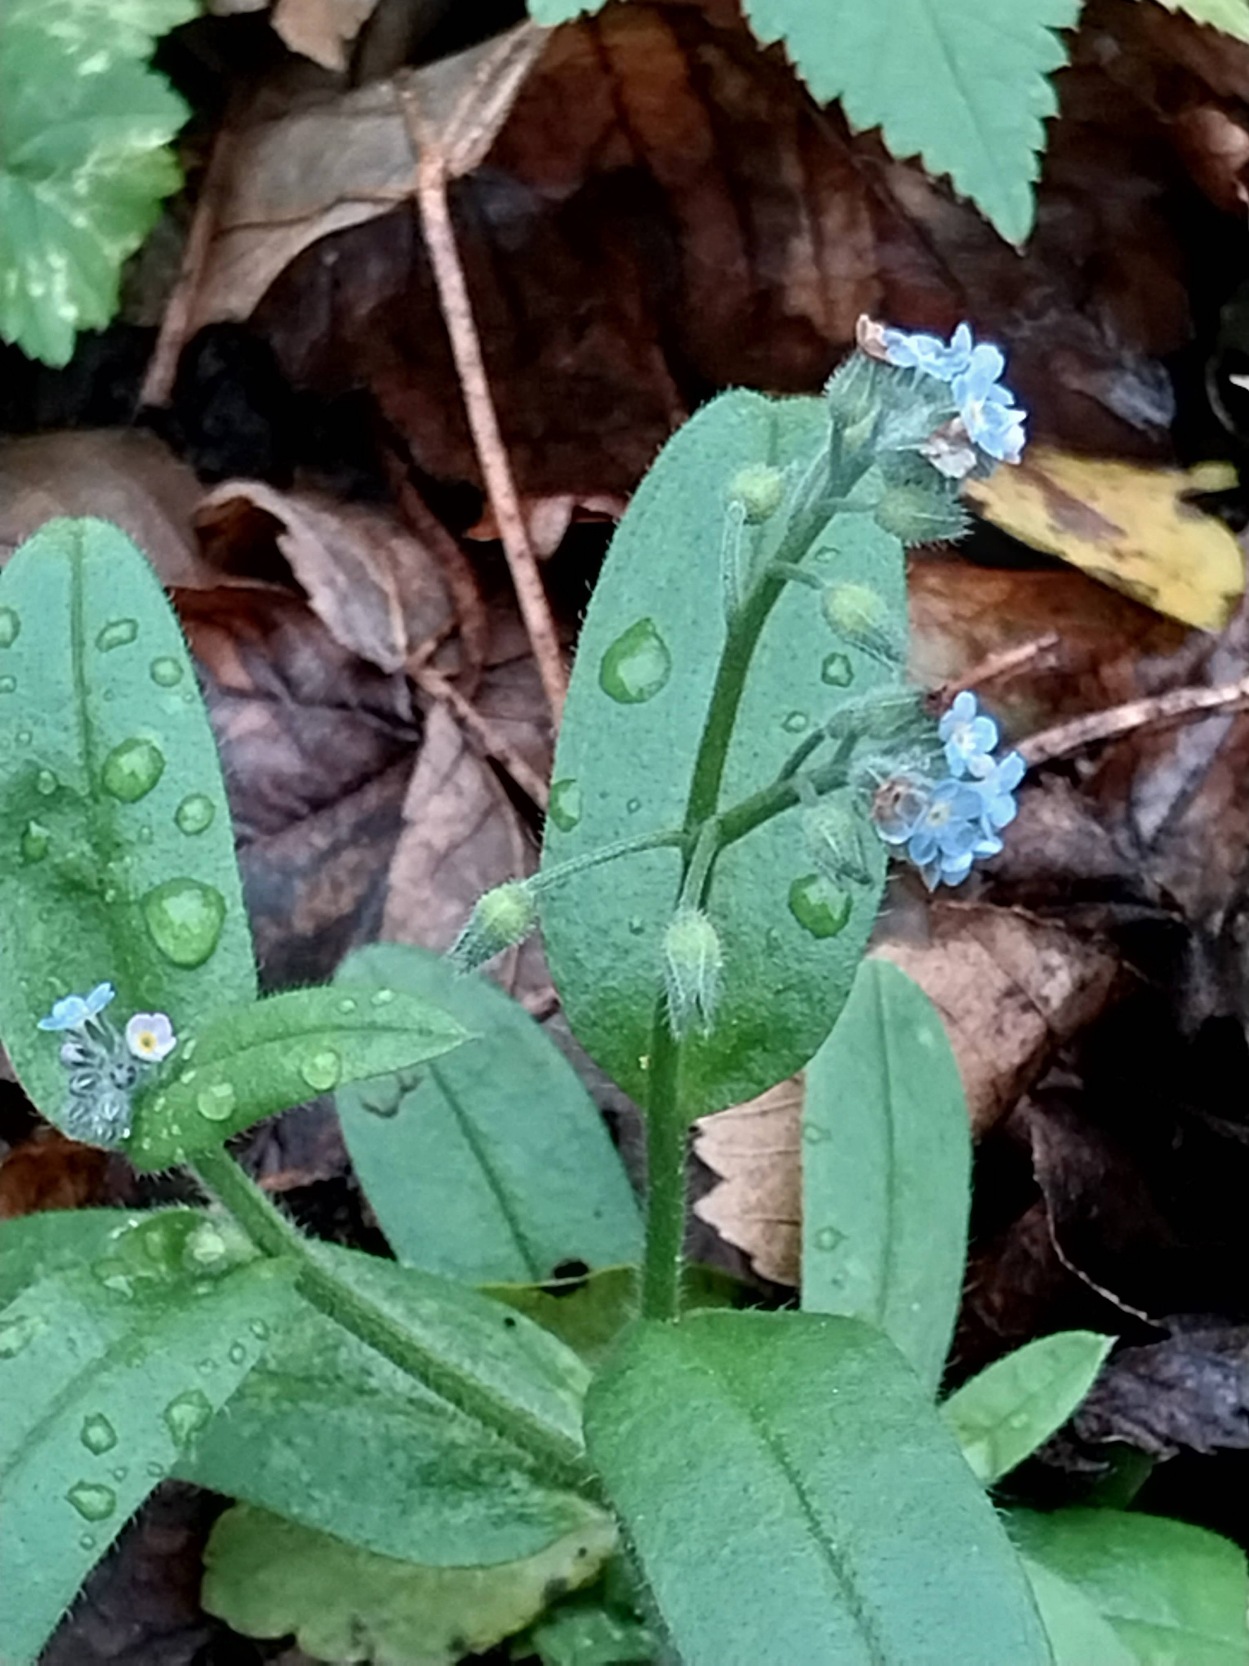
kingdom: Plantae
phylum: Tracheophyta
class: Magnoliopsida
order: Boraginales
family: Boraginaceae
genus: Myosotis
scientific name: Myosotis arvensis
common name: Mark-forglemmigej
